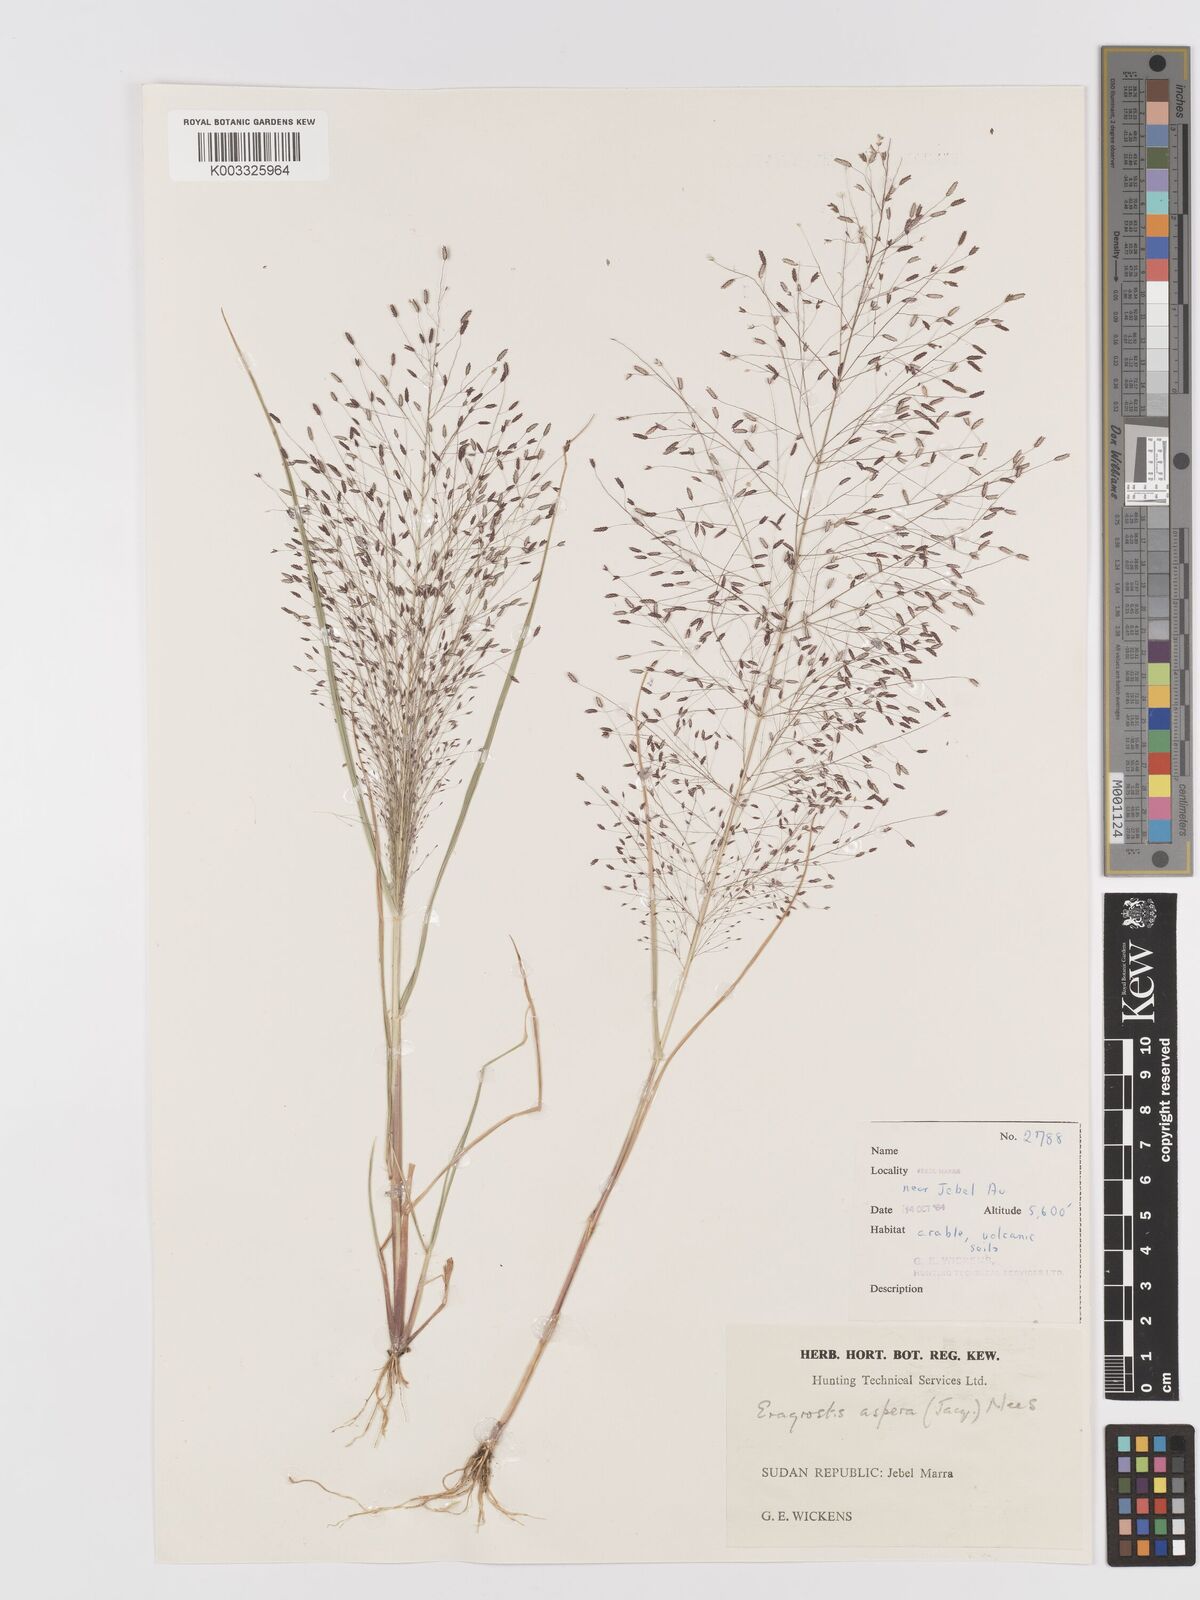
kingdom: Plantae
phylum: Tracheophyta
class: Liliopsida
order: Poales
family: Poaceae
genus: Eragrostis
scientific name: Eragrostis aspera
